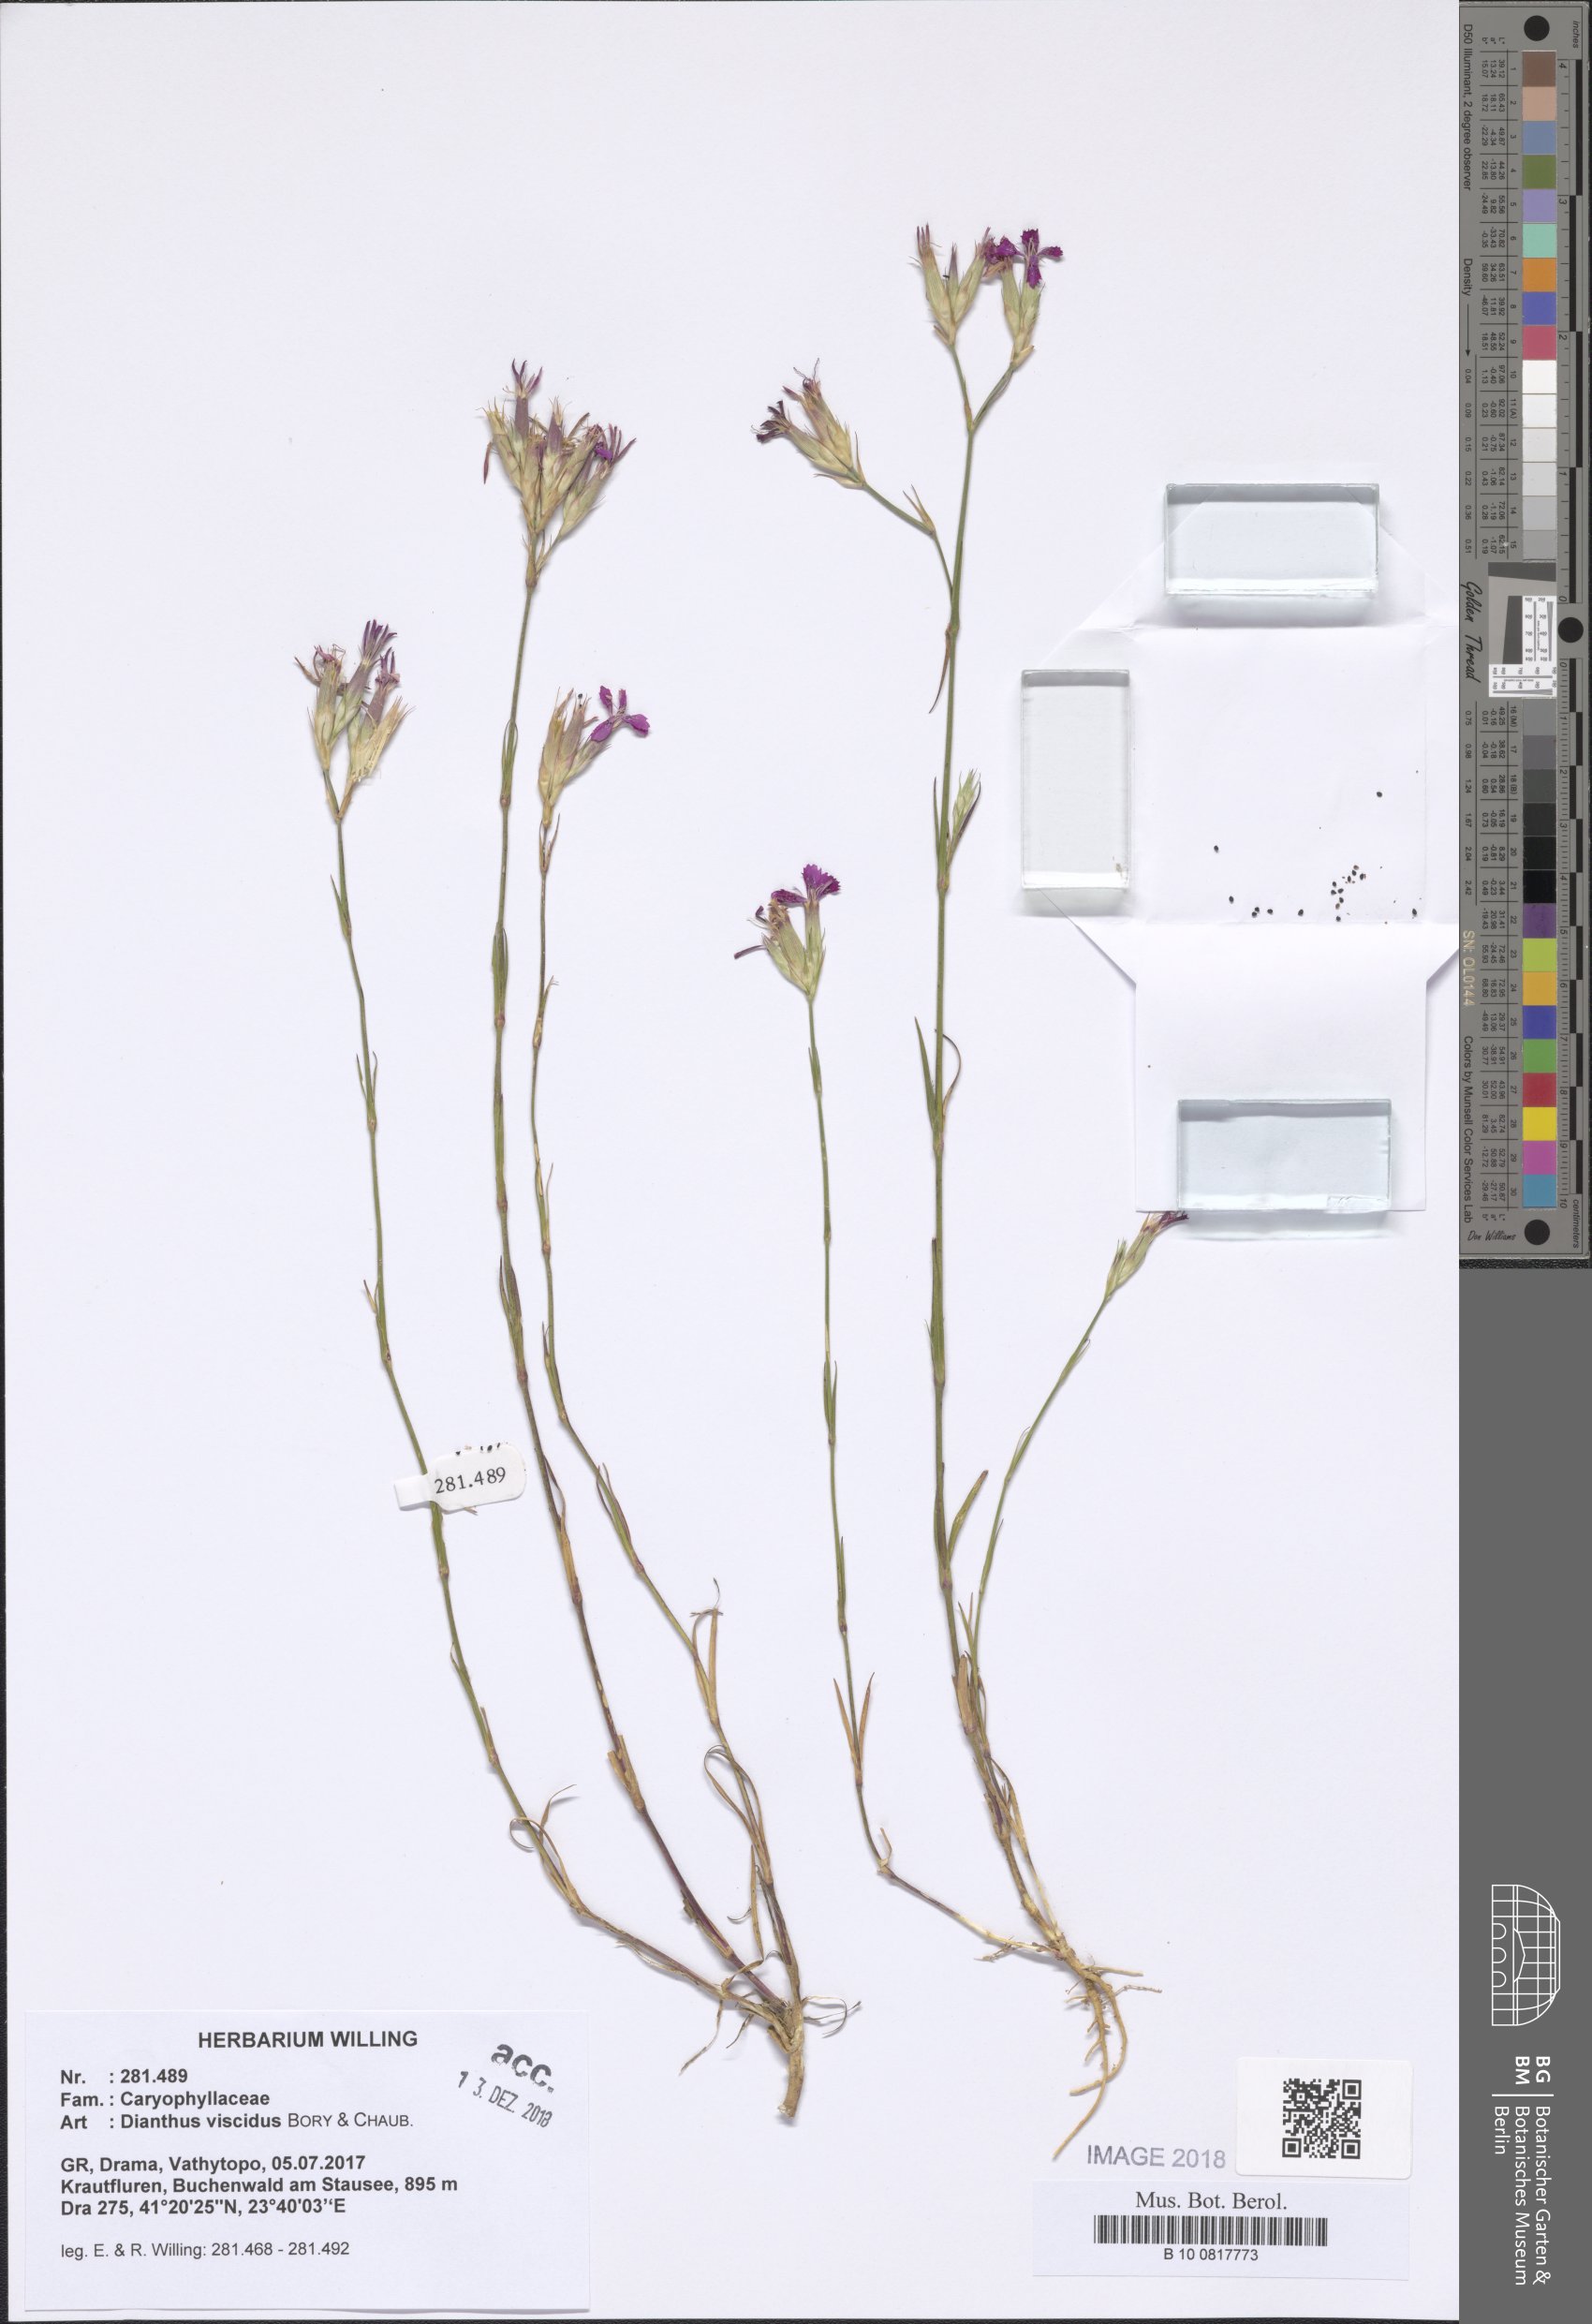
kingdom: Plantae
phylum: Tracheophyta
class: Magnoliopsida
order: Caryophyllales
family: Caryophyllaceae
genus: Dianthus
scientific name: Dianthus viscidus
